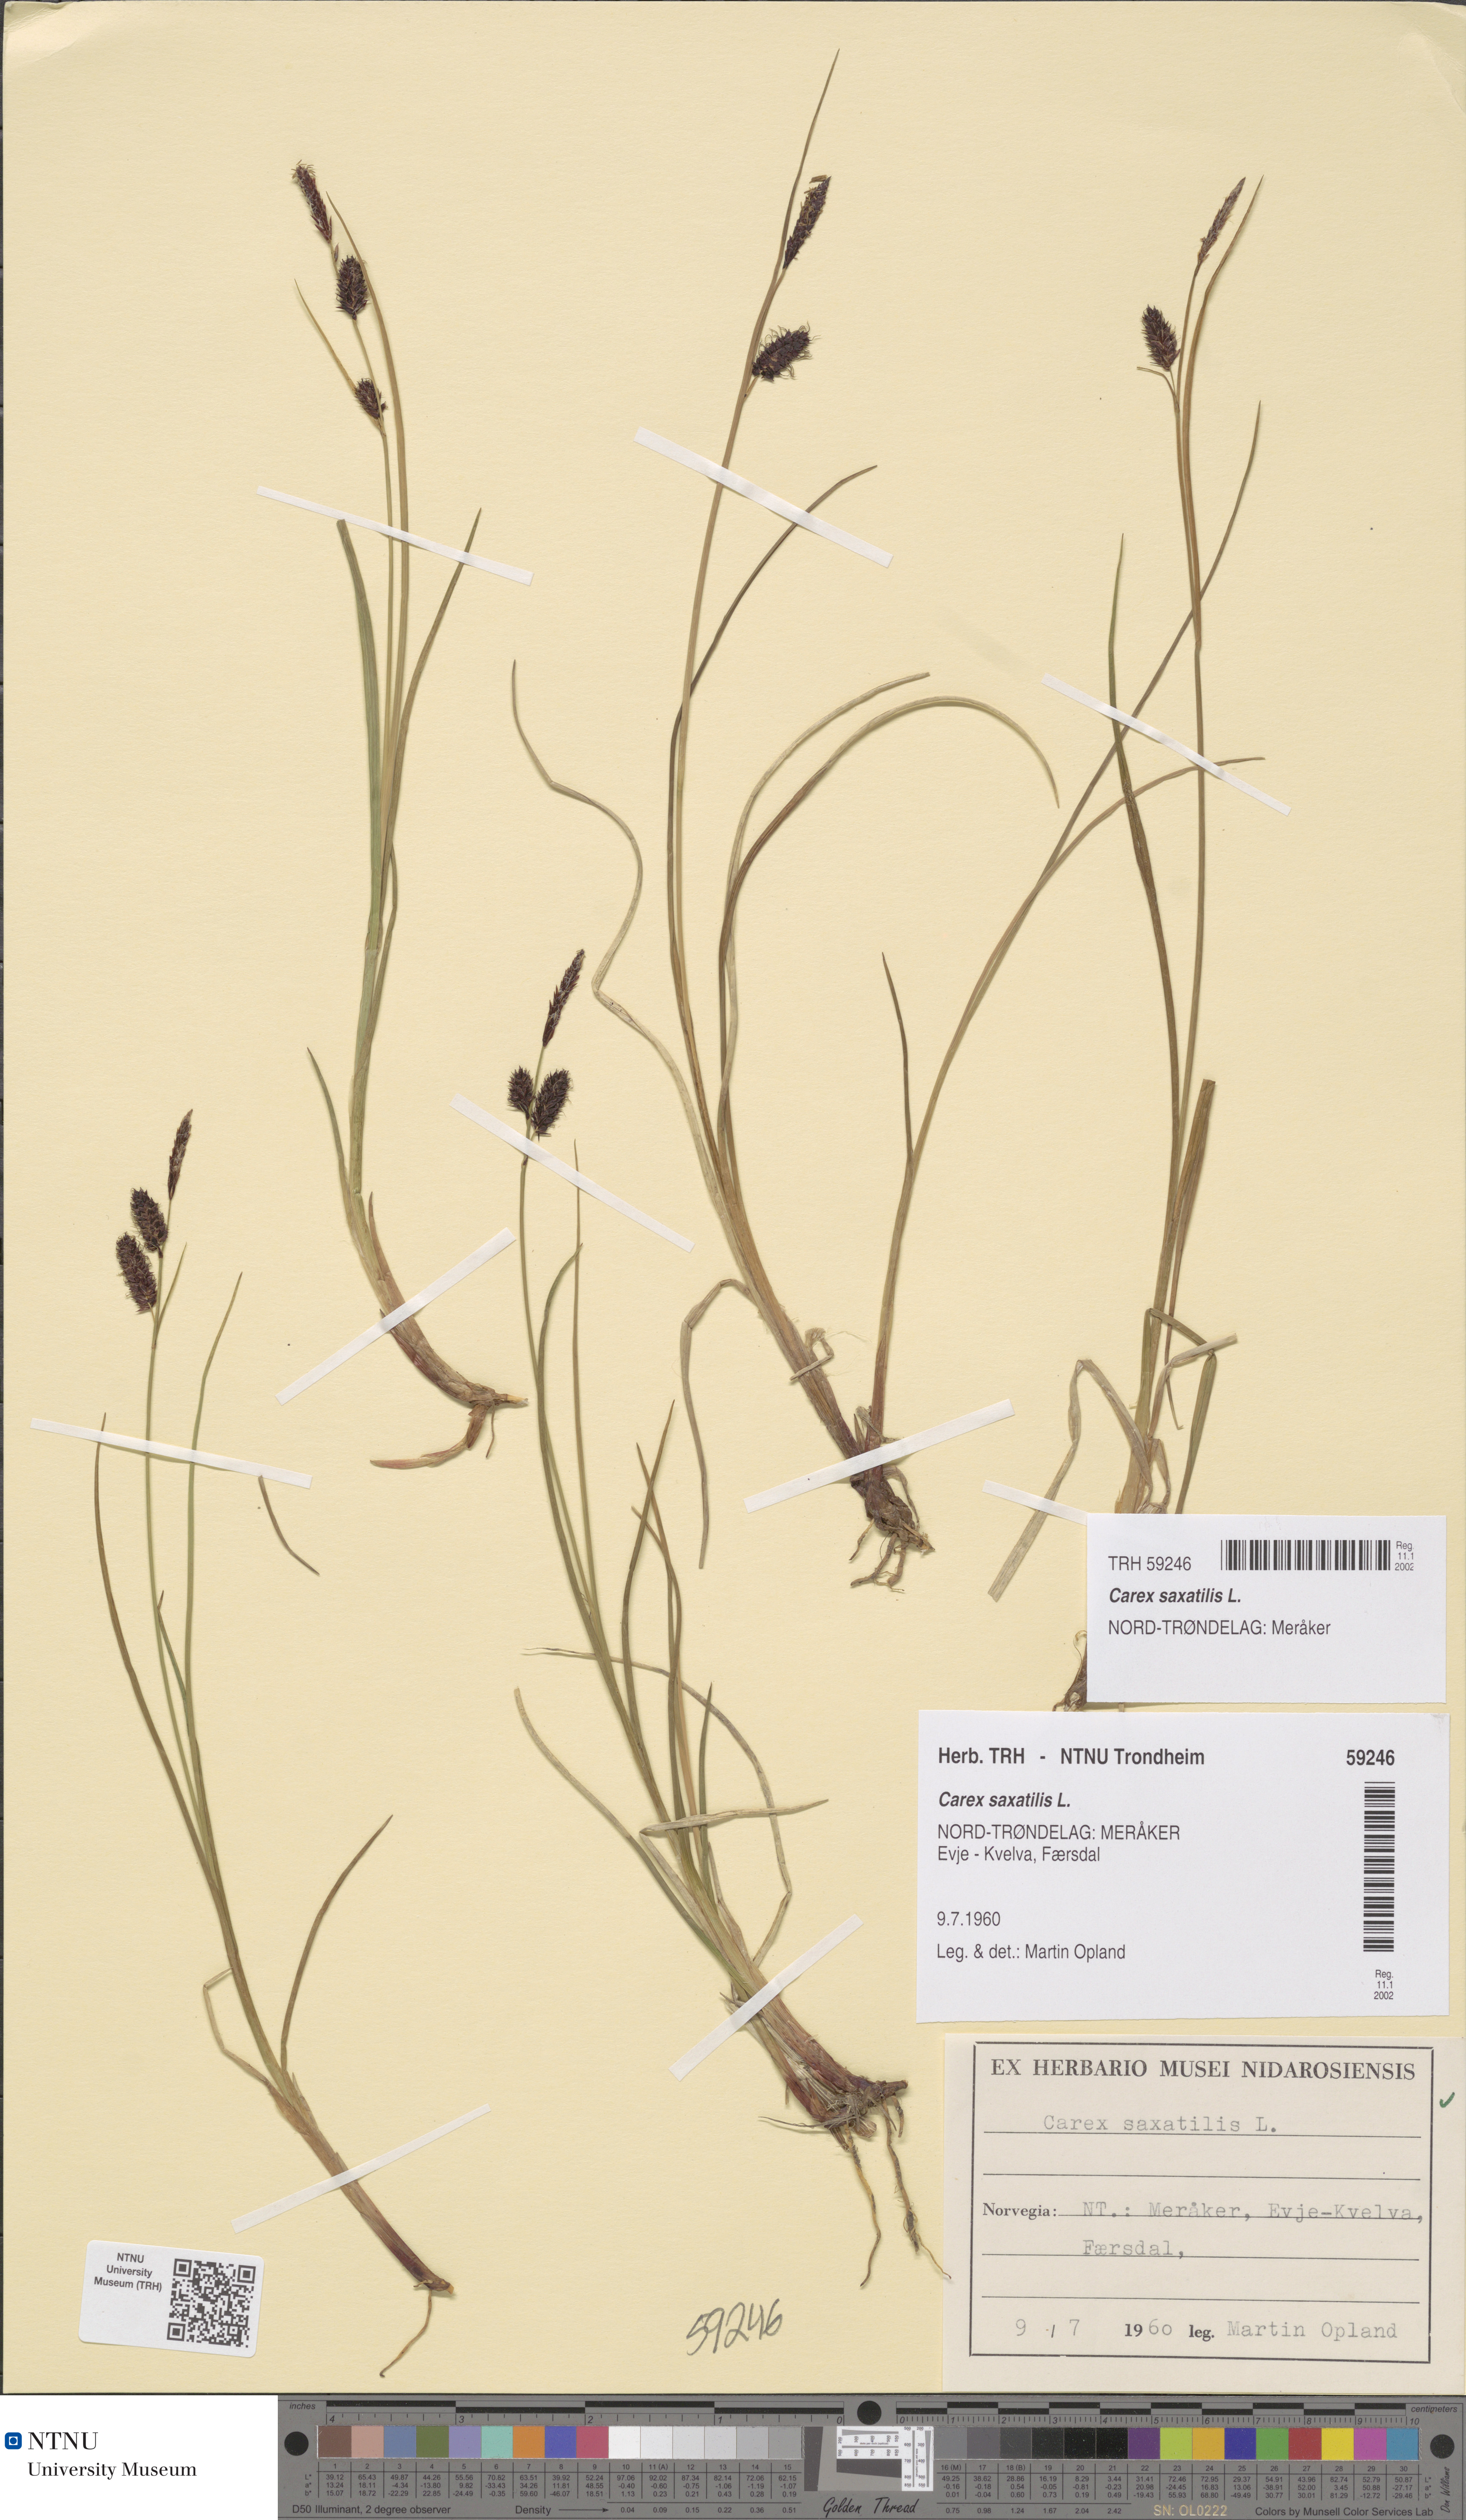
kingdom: Plantae
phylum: Tracheophyta
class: Liliopsida
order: Poales
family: Cyperaceae
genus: Carex
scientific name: Carex saxatilis
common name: Russet sedge
